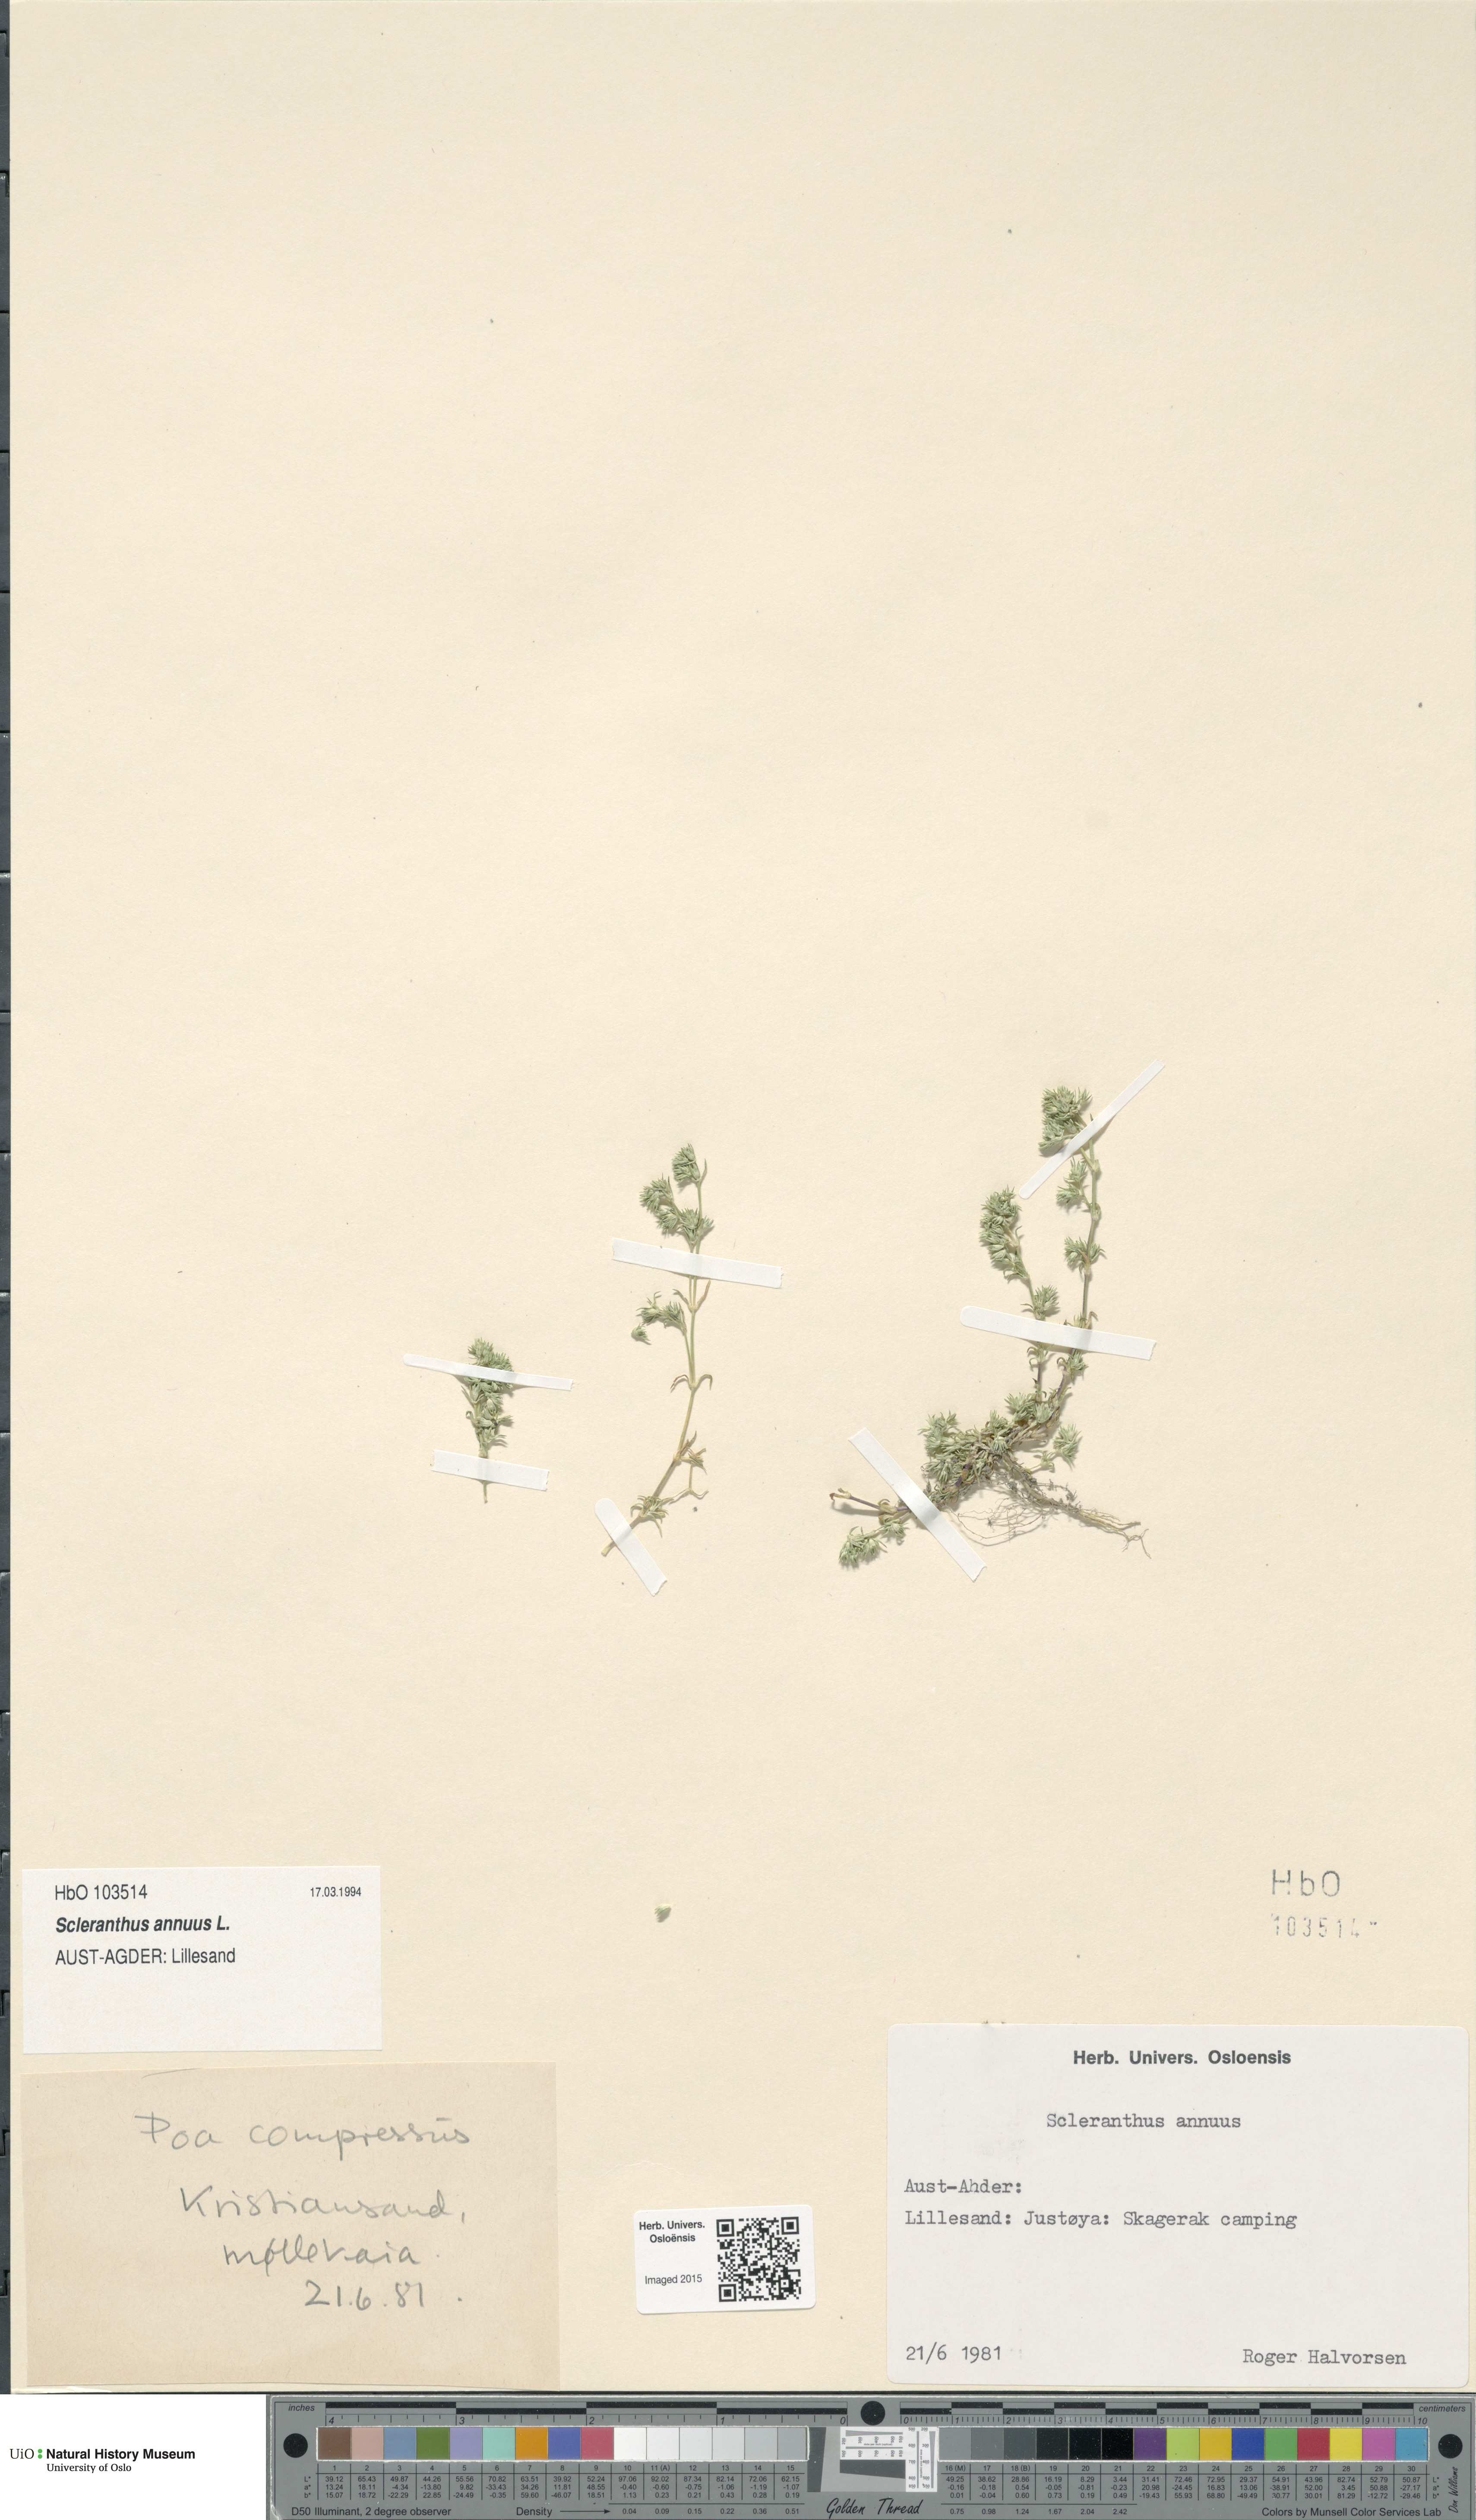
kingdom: Plantae
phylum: Tracheophyta
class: Magnoliopsida
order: Caryophyllales
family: Caryophyllaceae
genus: Scleranthus
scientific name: Scleranthus annuus
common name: Annual knawel
